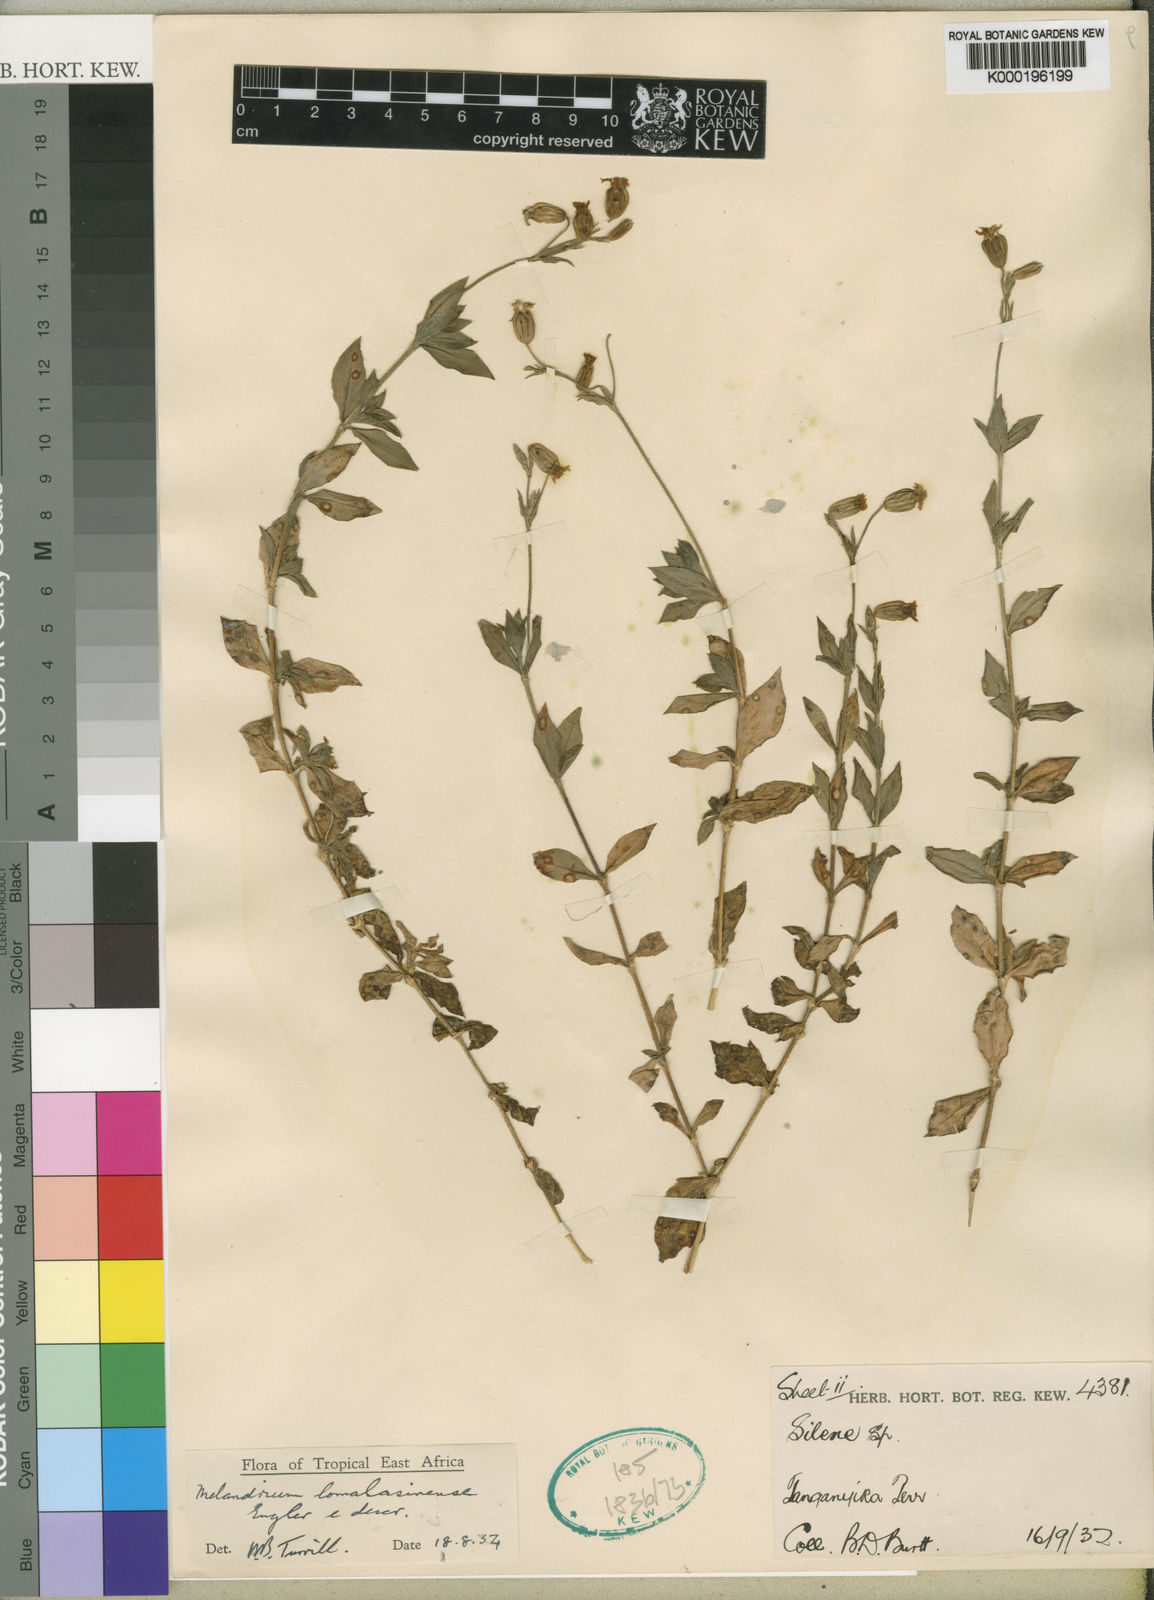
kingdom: Plantae
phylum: Tracheophyta
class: Magnoliopsida
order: Caryophyllales
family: Caryophyllaceae
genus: Silene
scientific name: Silene lomalasinensis
